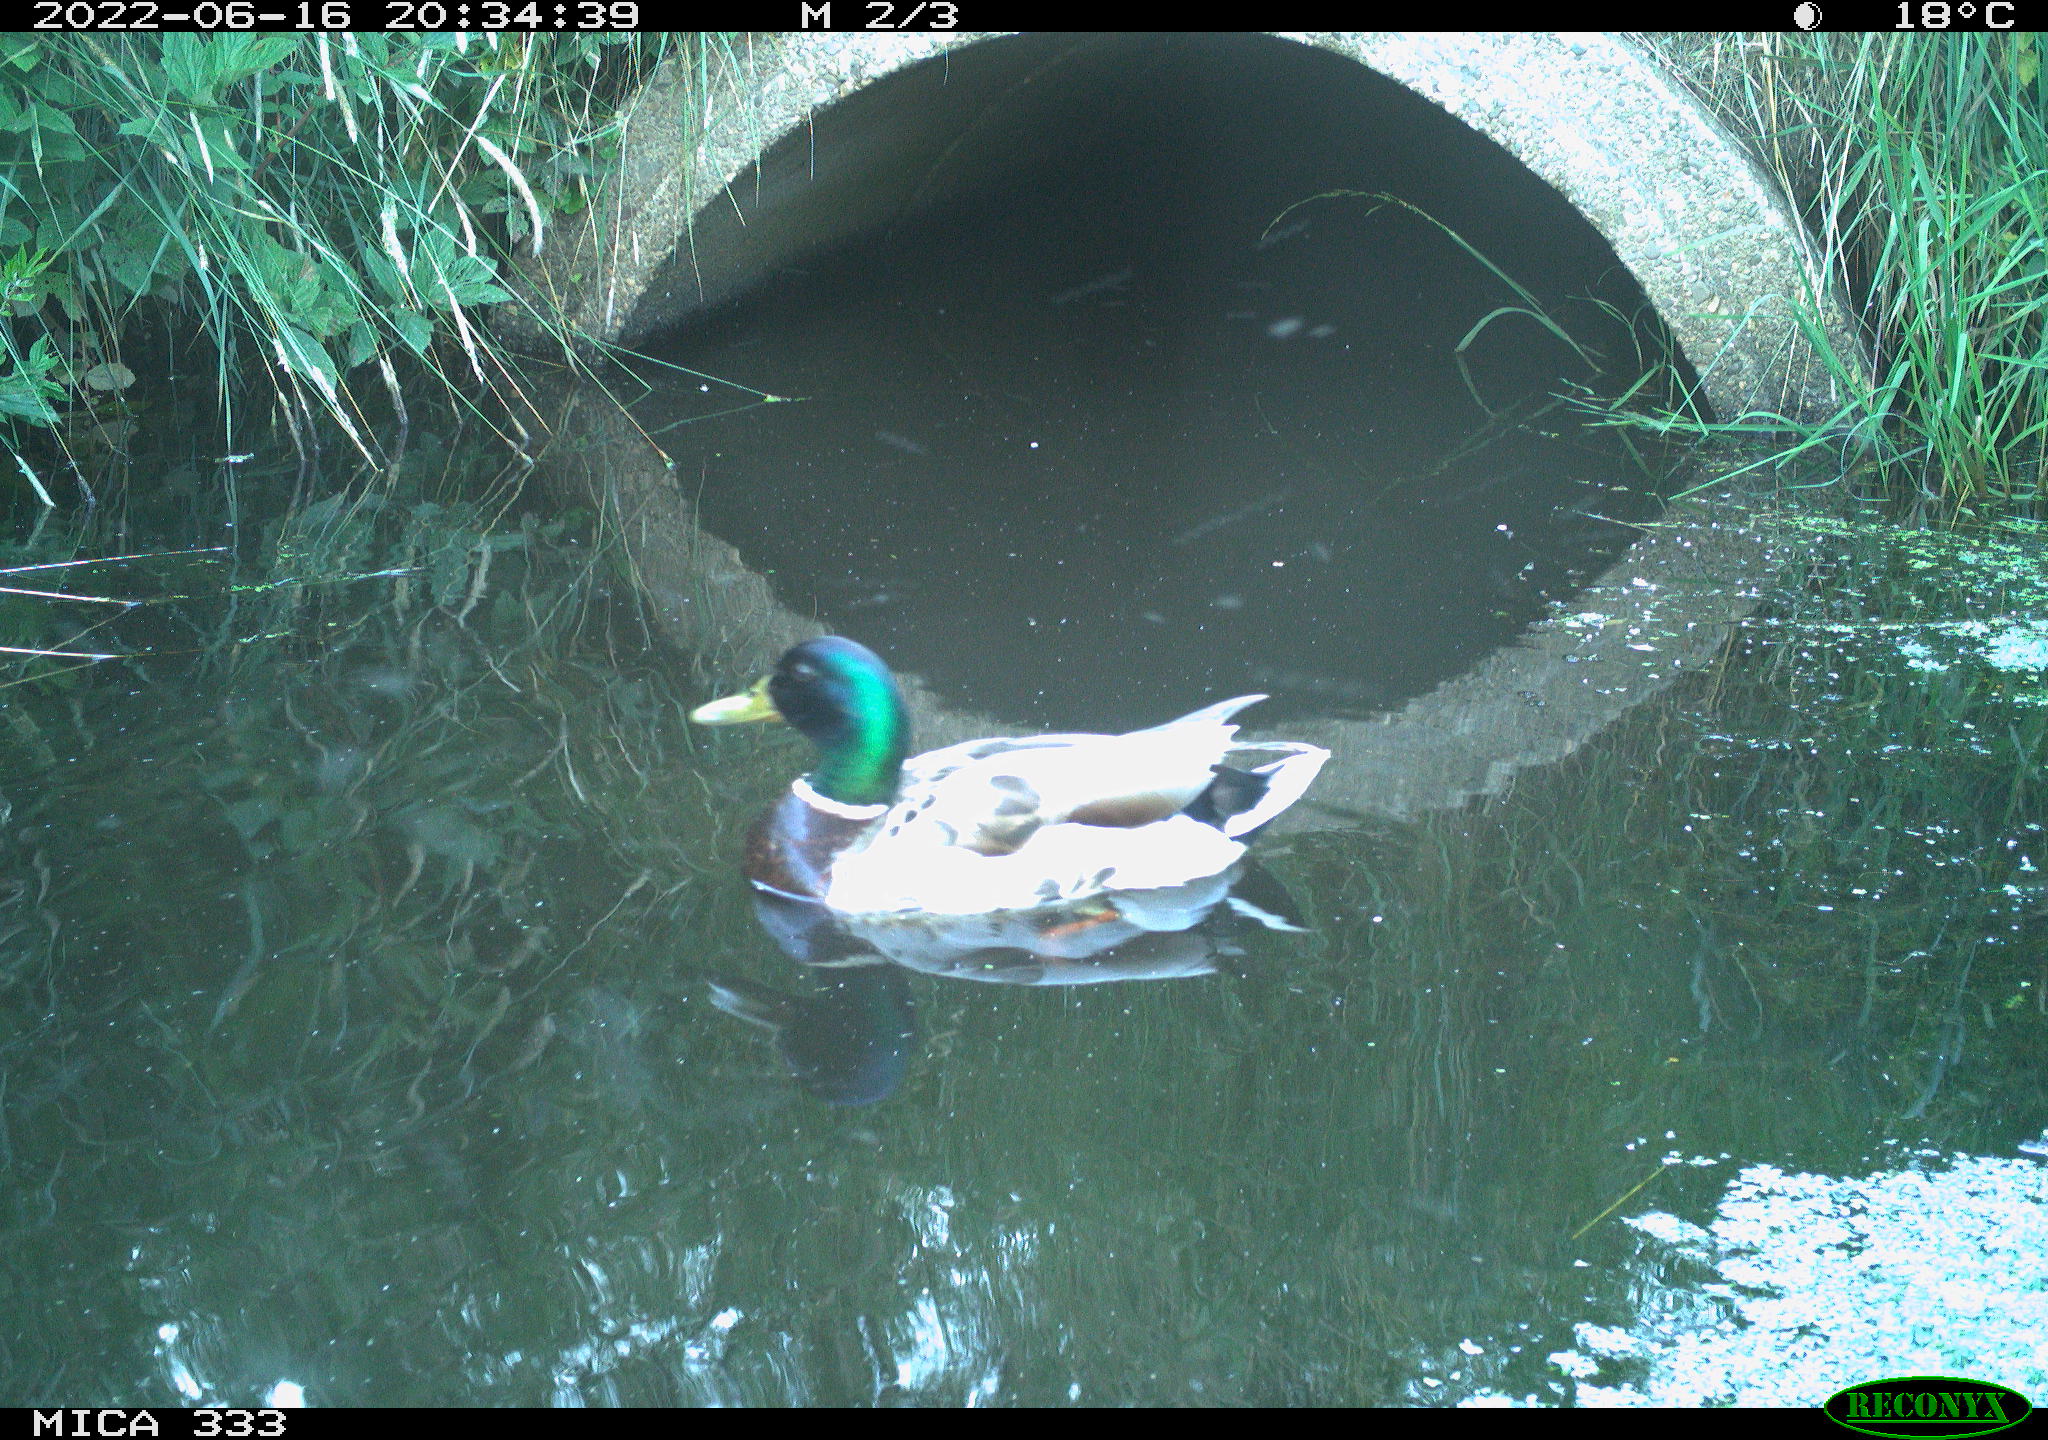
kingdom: Animalia
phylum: Chordata
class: Aves
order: Anseriformes
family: Anatidae
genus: Anas
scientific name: Anas platyrhynchos
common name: Mallard
